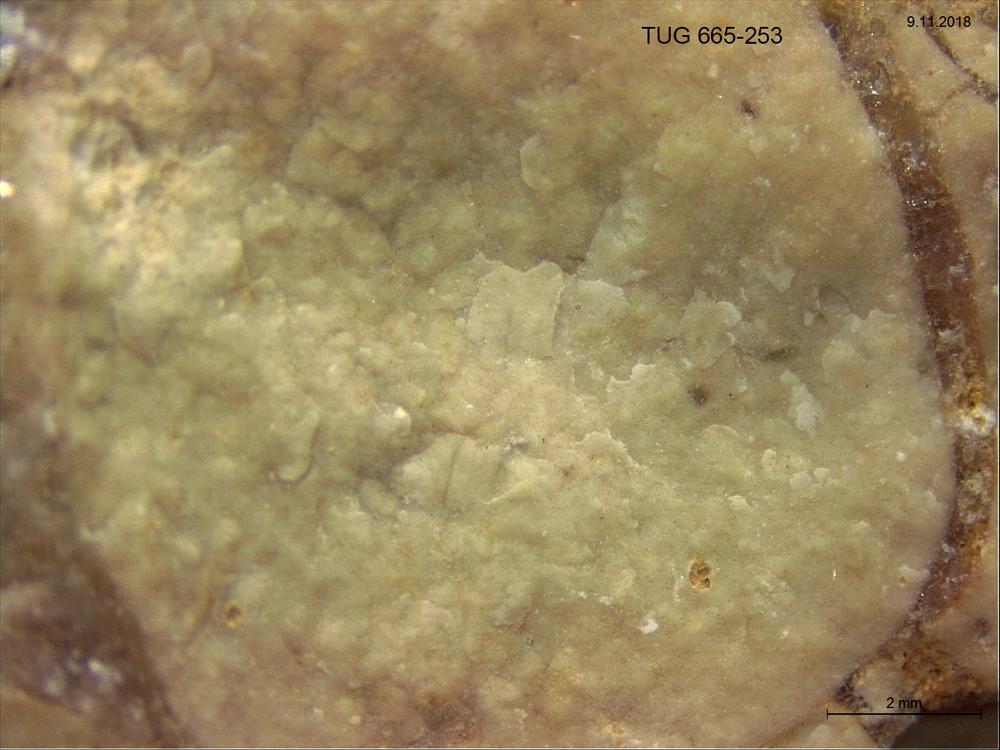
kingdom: Animalia
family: Coprulidae
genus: Coprulus
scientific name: Coprulus
